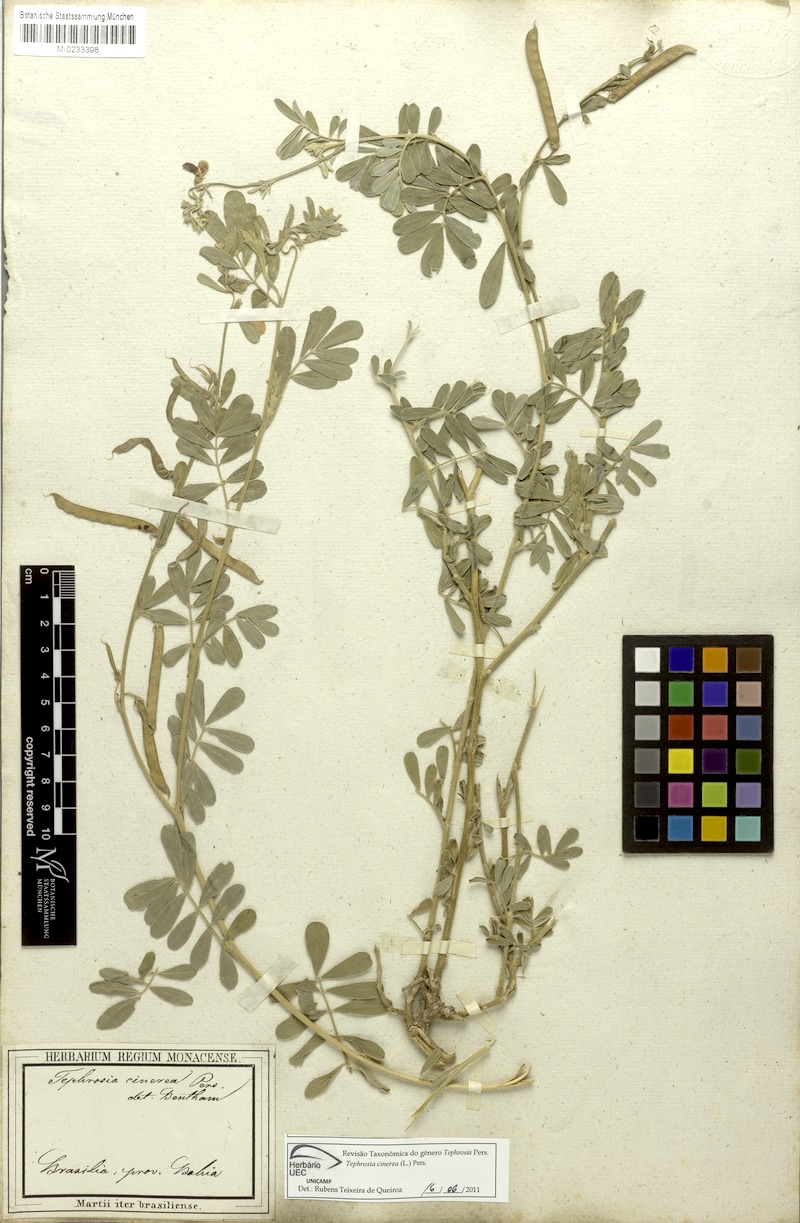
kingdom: Plantae
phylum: Tracheophyta
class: Magnoliopsida
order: Fabales
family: Fabaceae
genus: Tephrosia
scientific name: Tephrosia cinerea
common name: Ashen hoarypea
